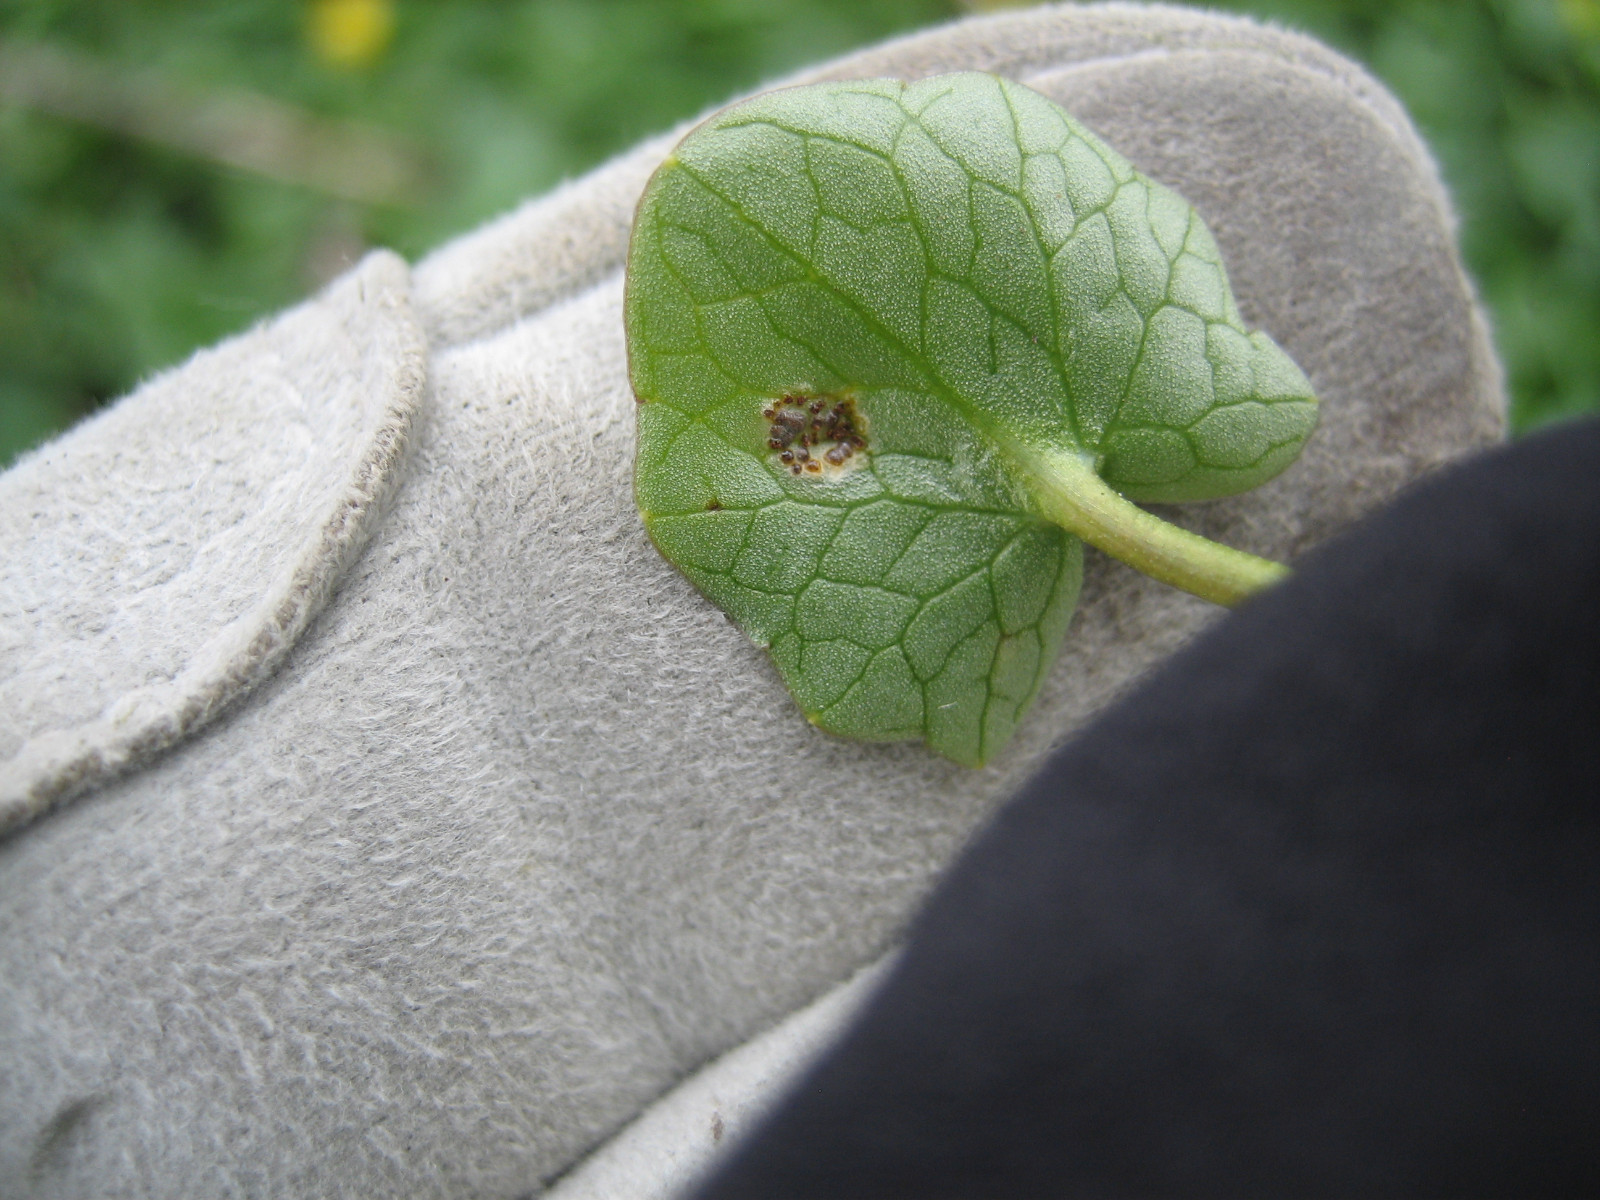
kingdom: Fungi
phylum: Basidiomycota
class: Pucciniomycetes
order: Pucciniales
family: Pucciniaceae
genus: Uromyces
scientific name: Uromyces ficariae
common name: vorterod-encellerust
